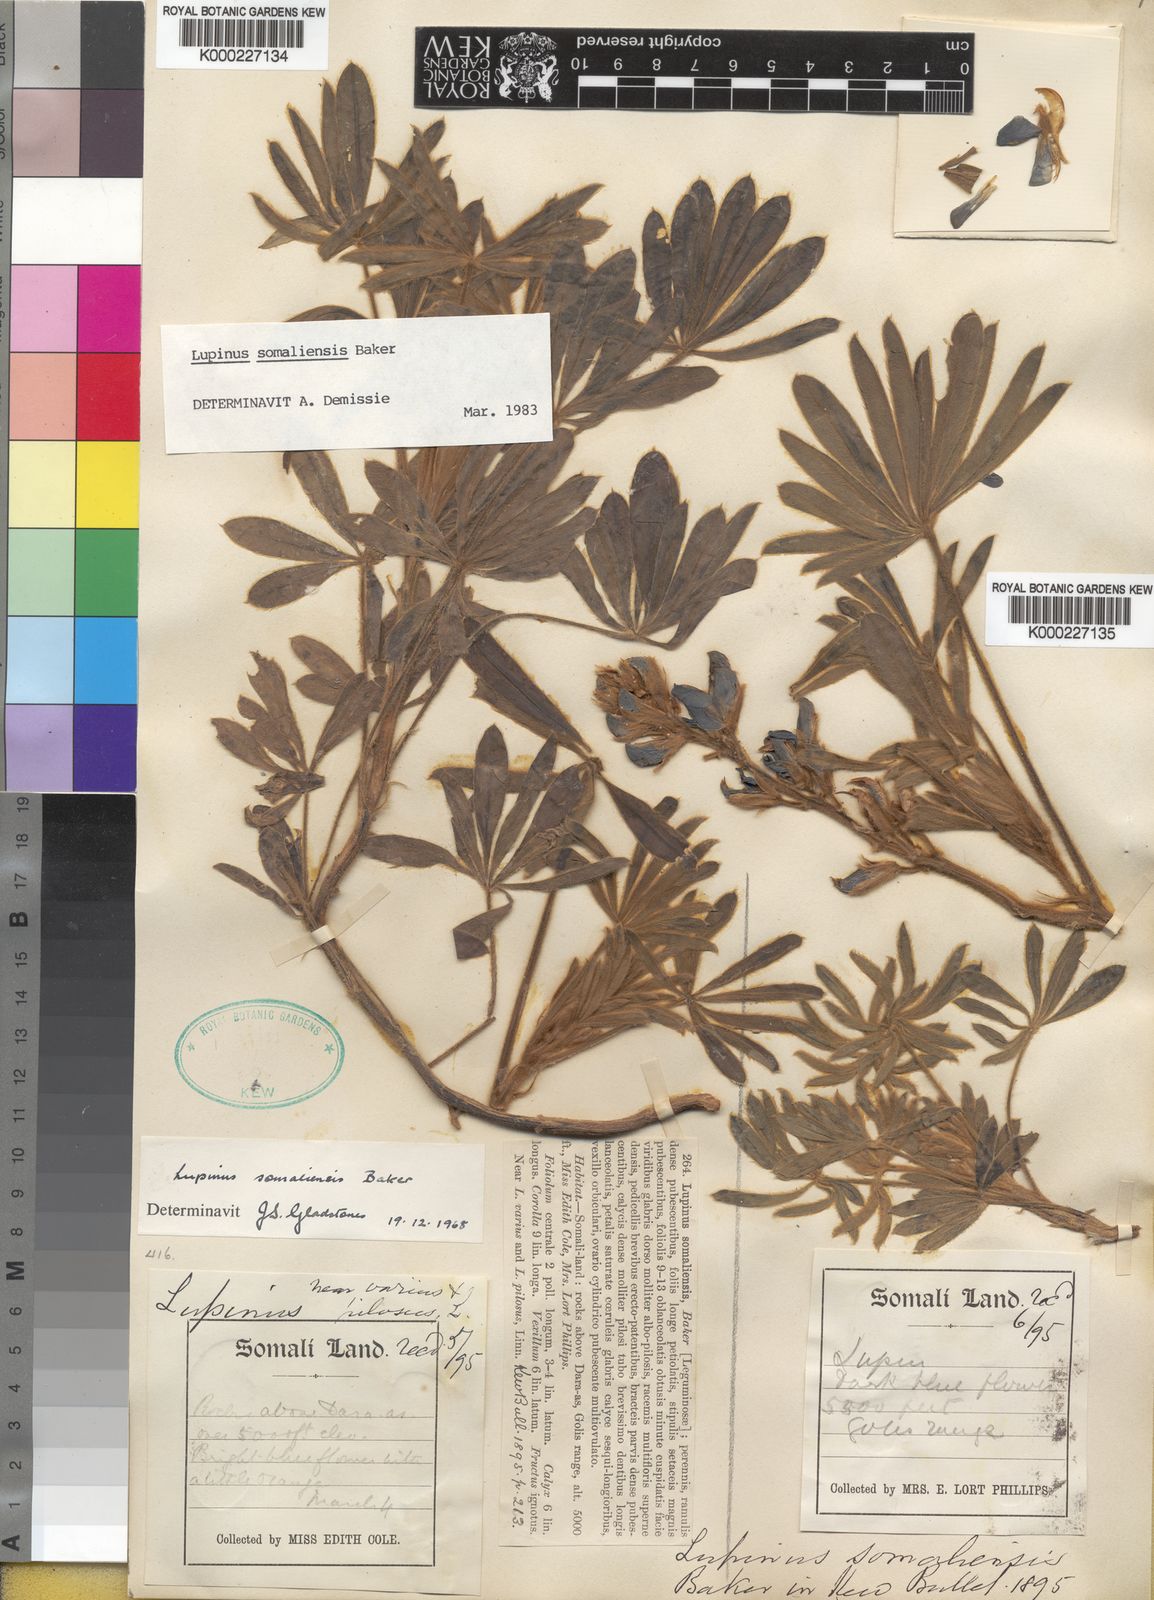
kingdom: Plantae
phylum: Tracheophyta
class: Magnoliopsida
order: Fabales
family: Fabaceae
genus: Lupinus
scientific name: Lupinus somaliensis
